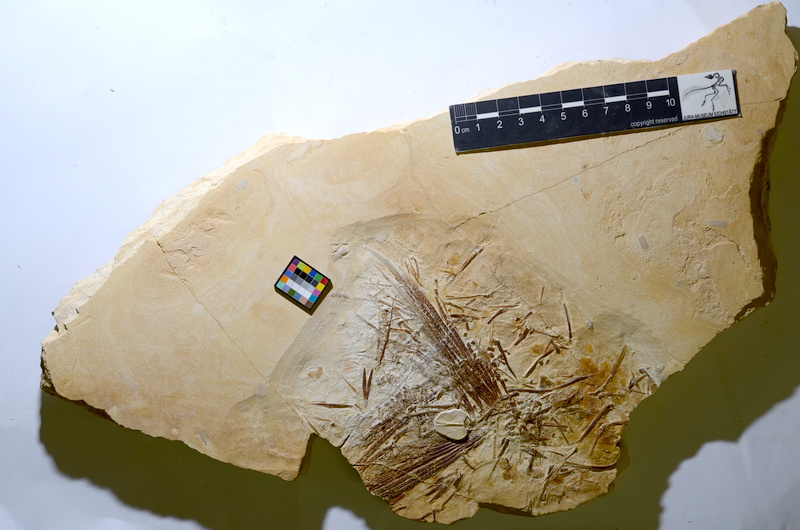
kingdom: Animalia
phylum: Chordata
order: Amiiformes
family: Caturidae
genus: Caturus
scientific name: Caturus
